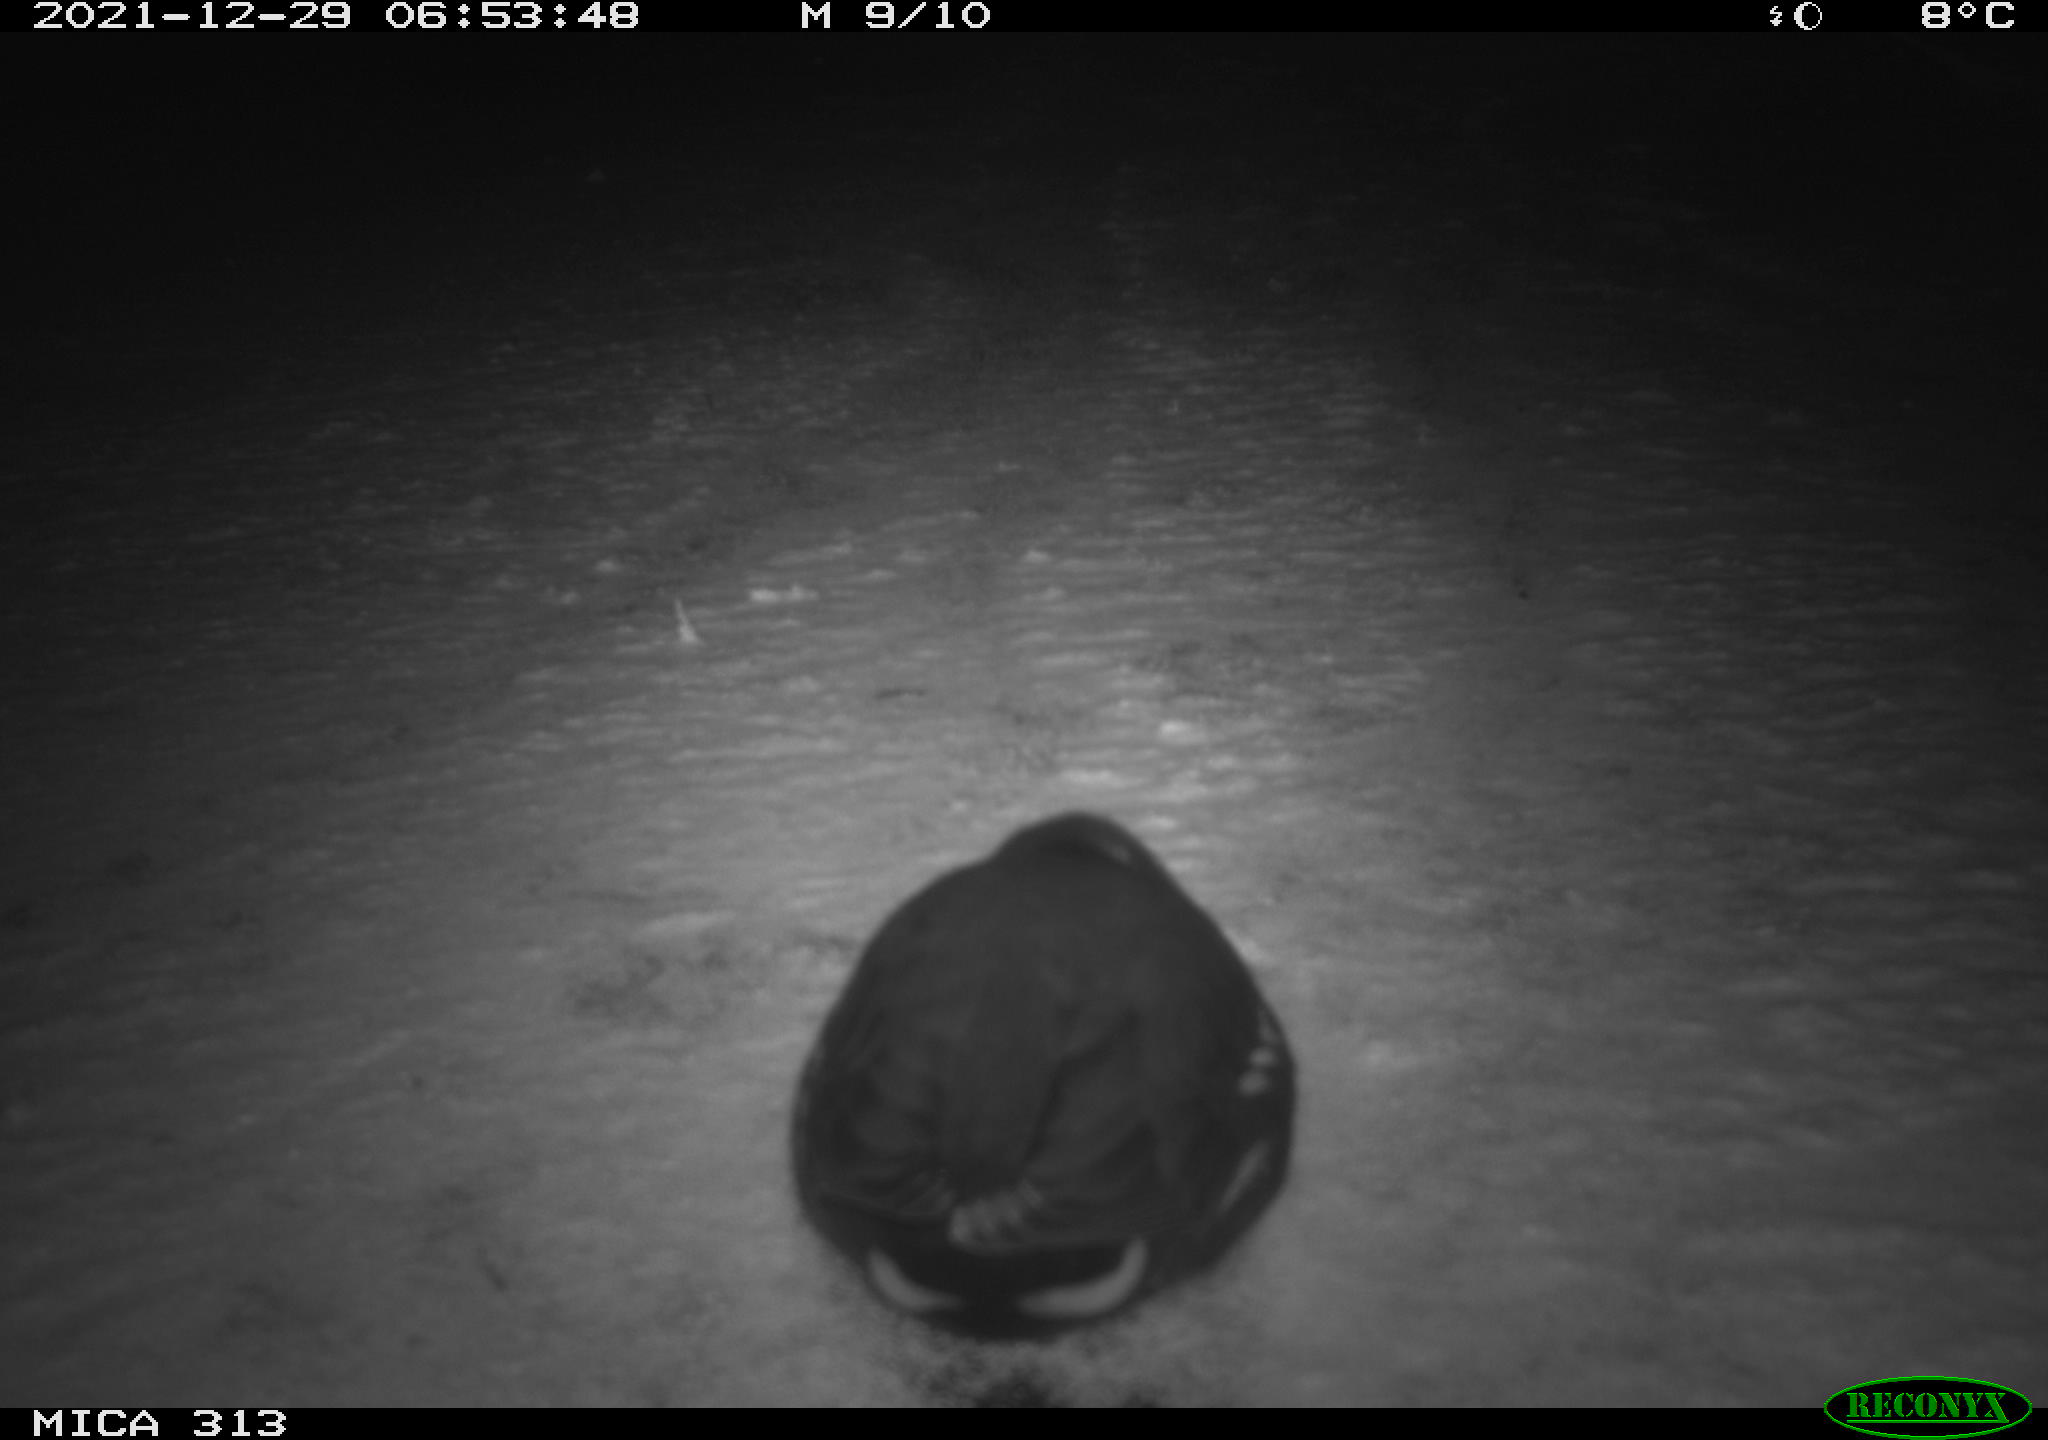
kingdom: Animalia
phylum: Chordata
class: Aves
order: Gruiformes
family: Rallidae
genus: Gallinula
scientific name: Gallinula chloropus
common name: Common moorhen
